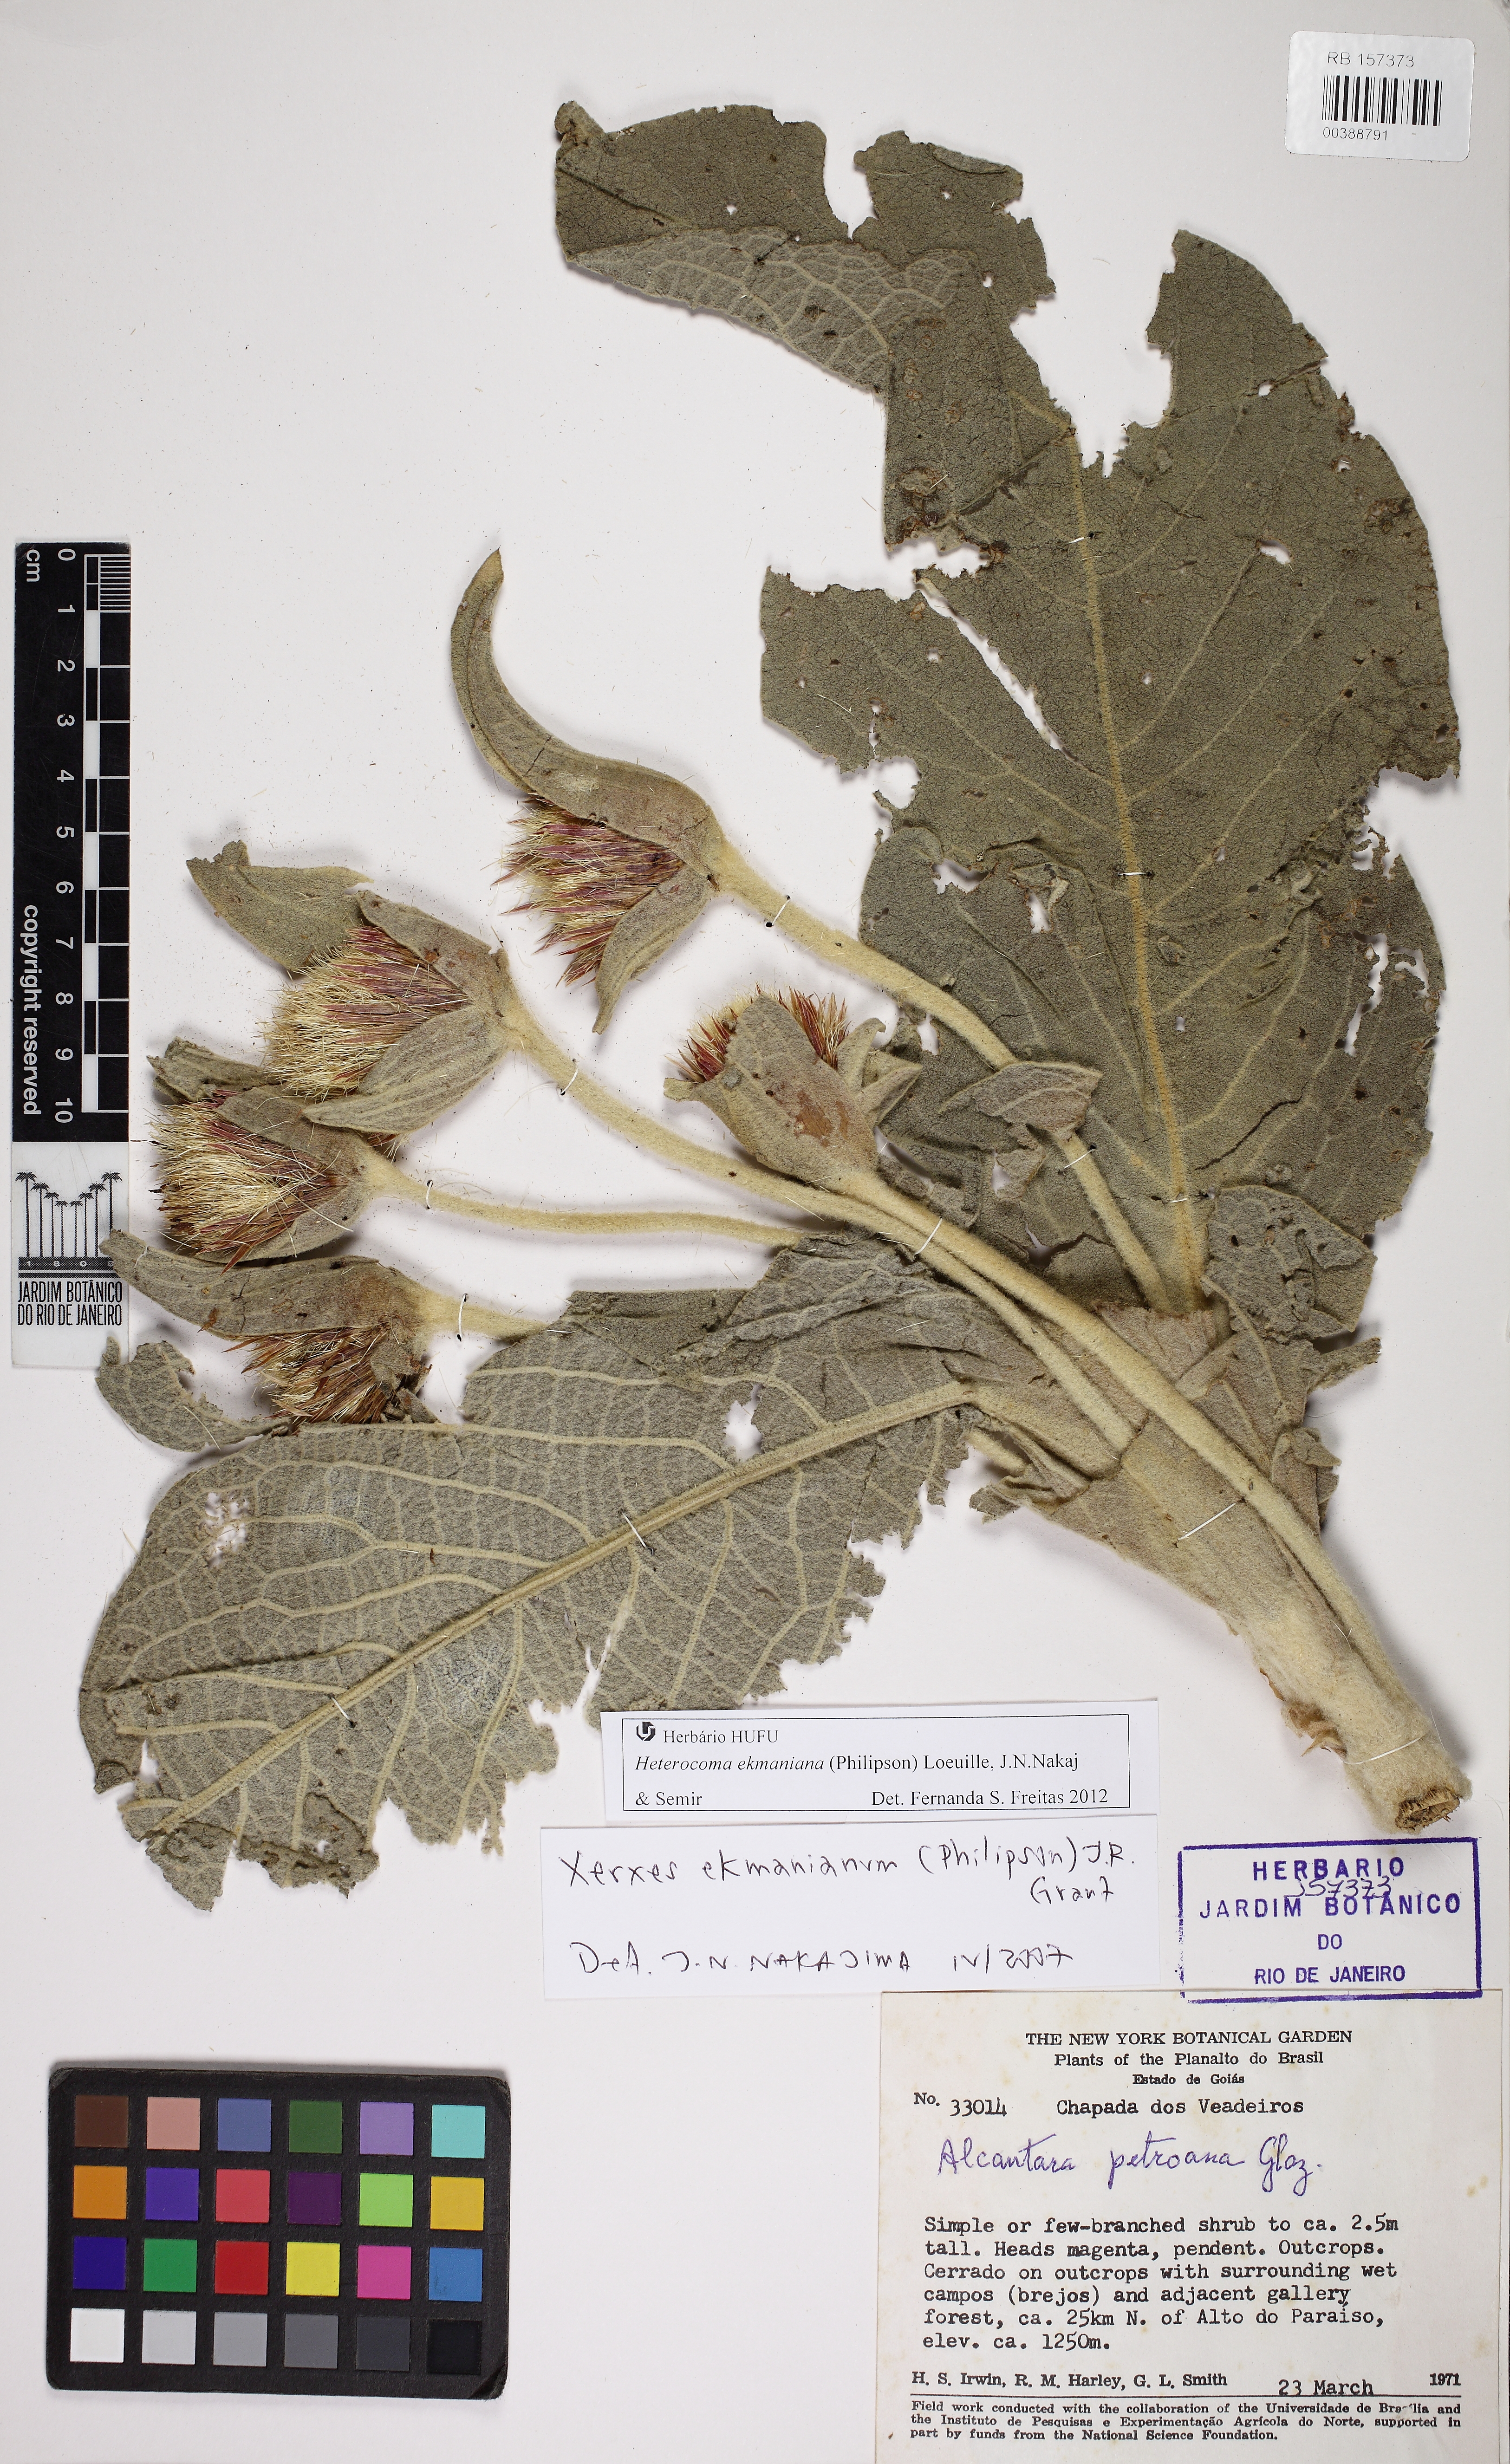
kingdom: Plantae
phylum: Tracheophyta
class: Magnoliopsida
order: Asterales
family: Asteraceae
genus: Heterocoma
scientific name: Heterocoma ekmaniana
